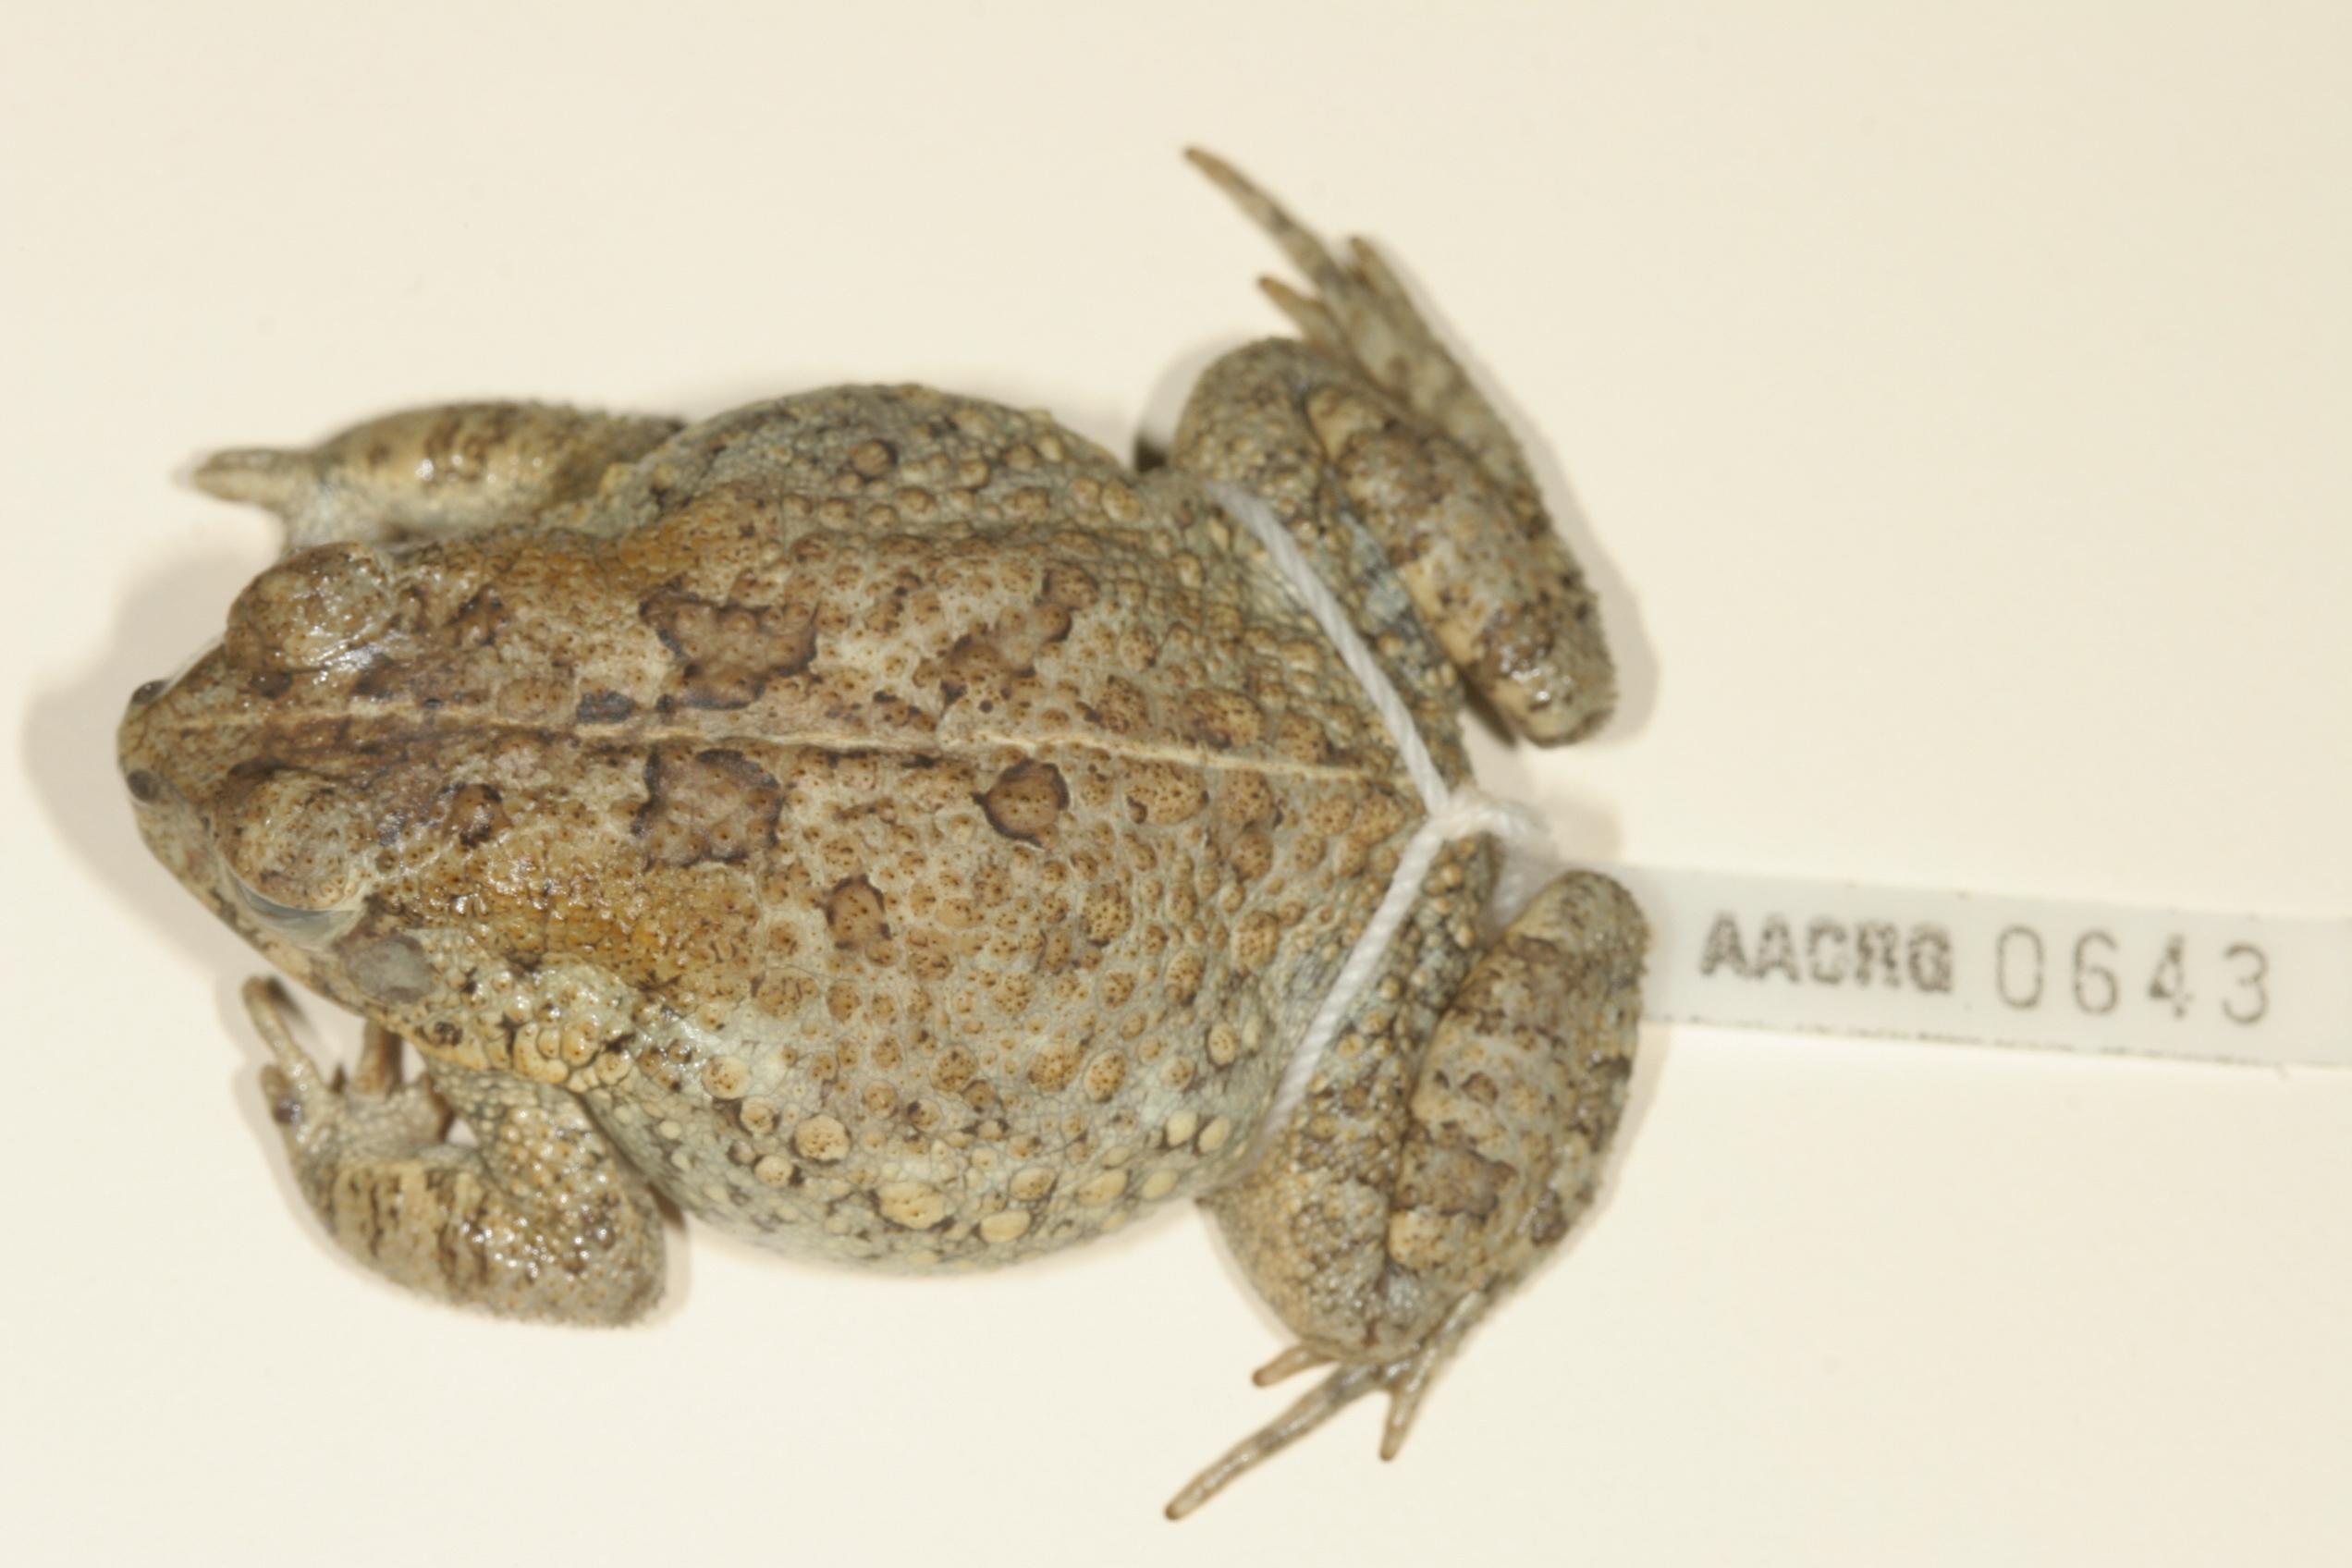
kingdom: Animalia
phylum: Chordata
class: Amphibia
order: Anura
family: Bufonidae
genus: Sclerophrys
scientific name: Sclerophrys regularis
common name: African common toad
